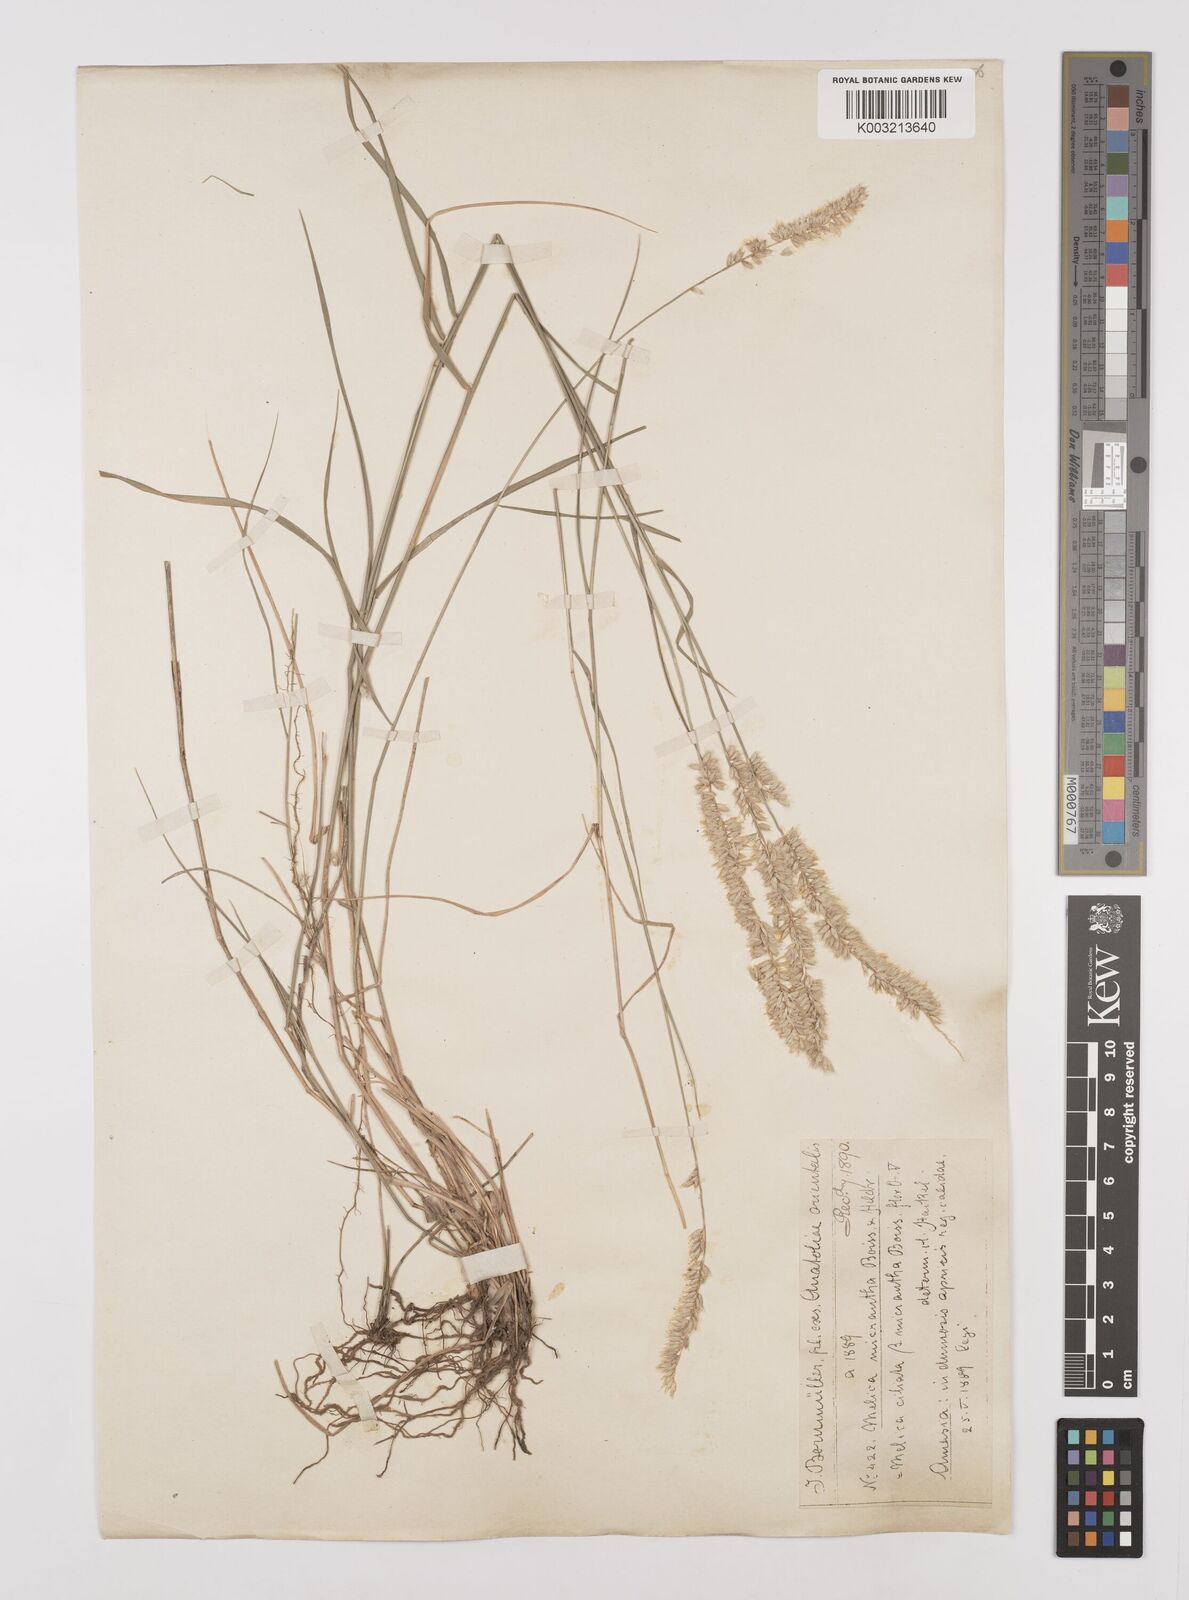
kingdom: Plantae
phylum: Tracheophyta
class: Liliopsida
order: Poales
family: Poaceae
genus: Melica
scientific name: Melica ciliata
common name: Hairy melicgrass
